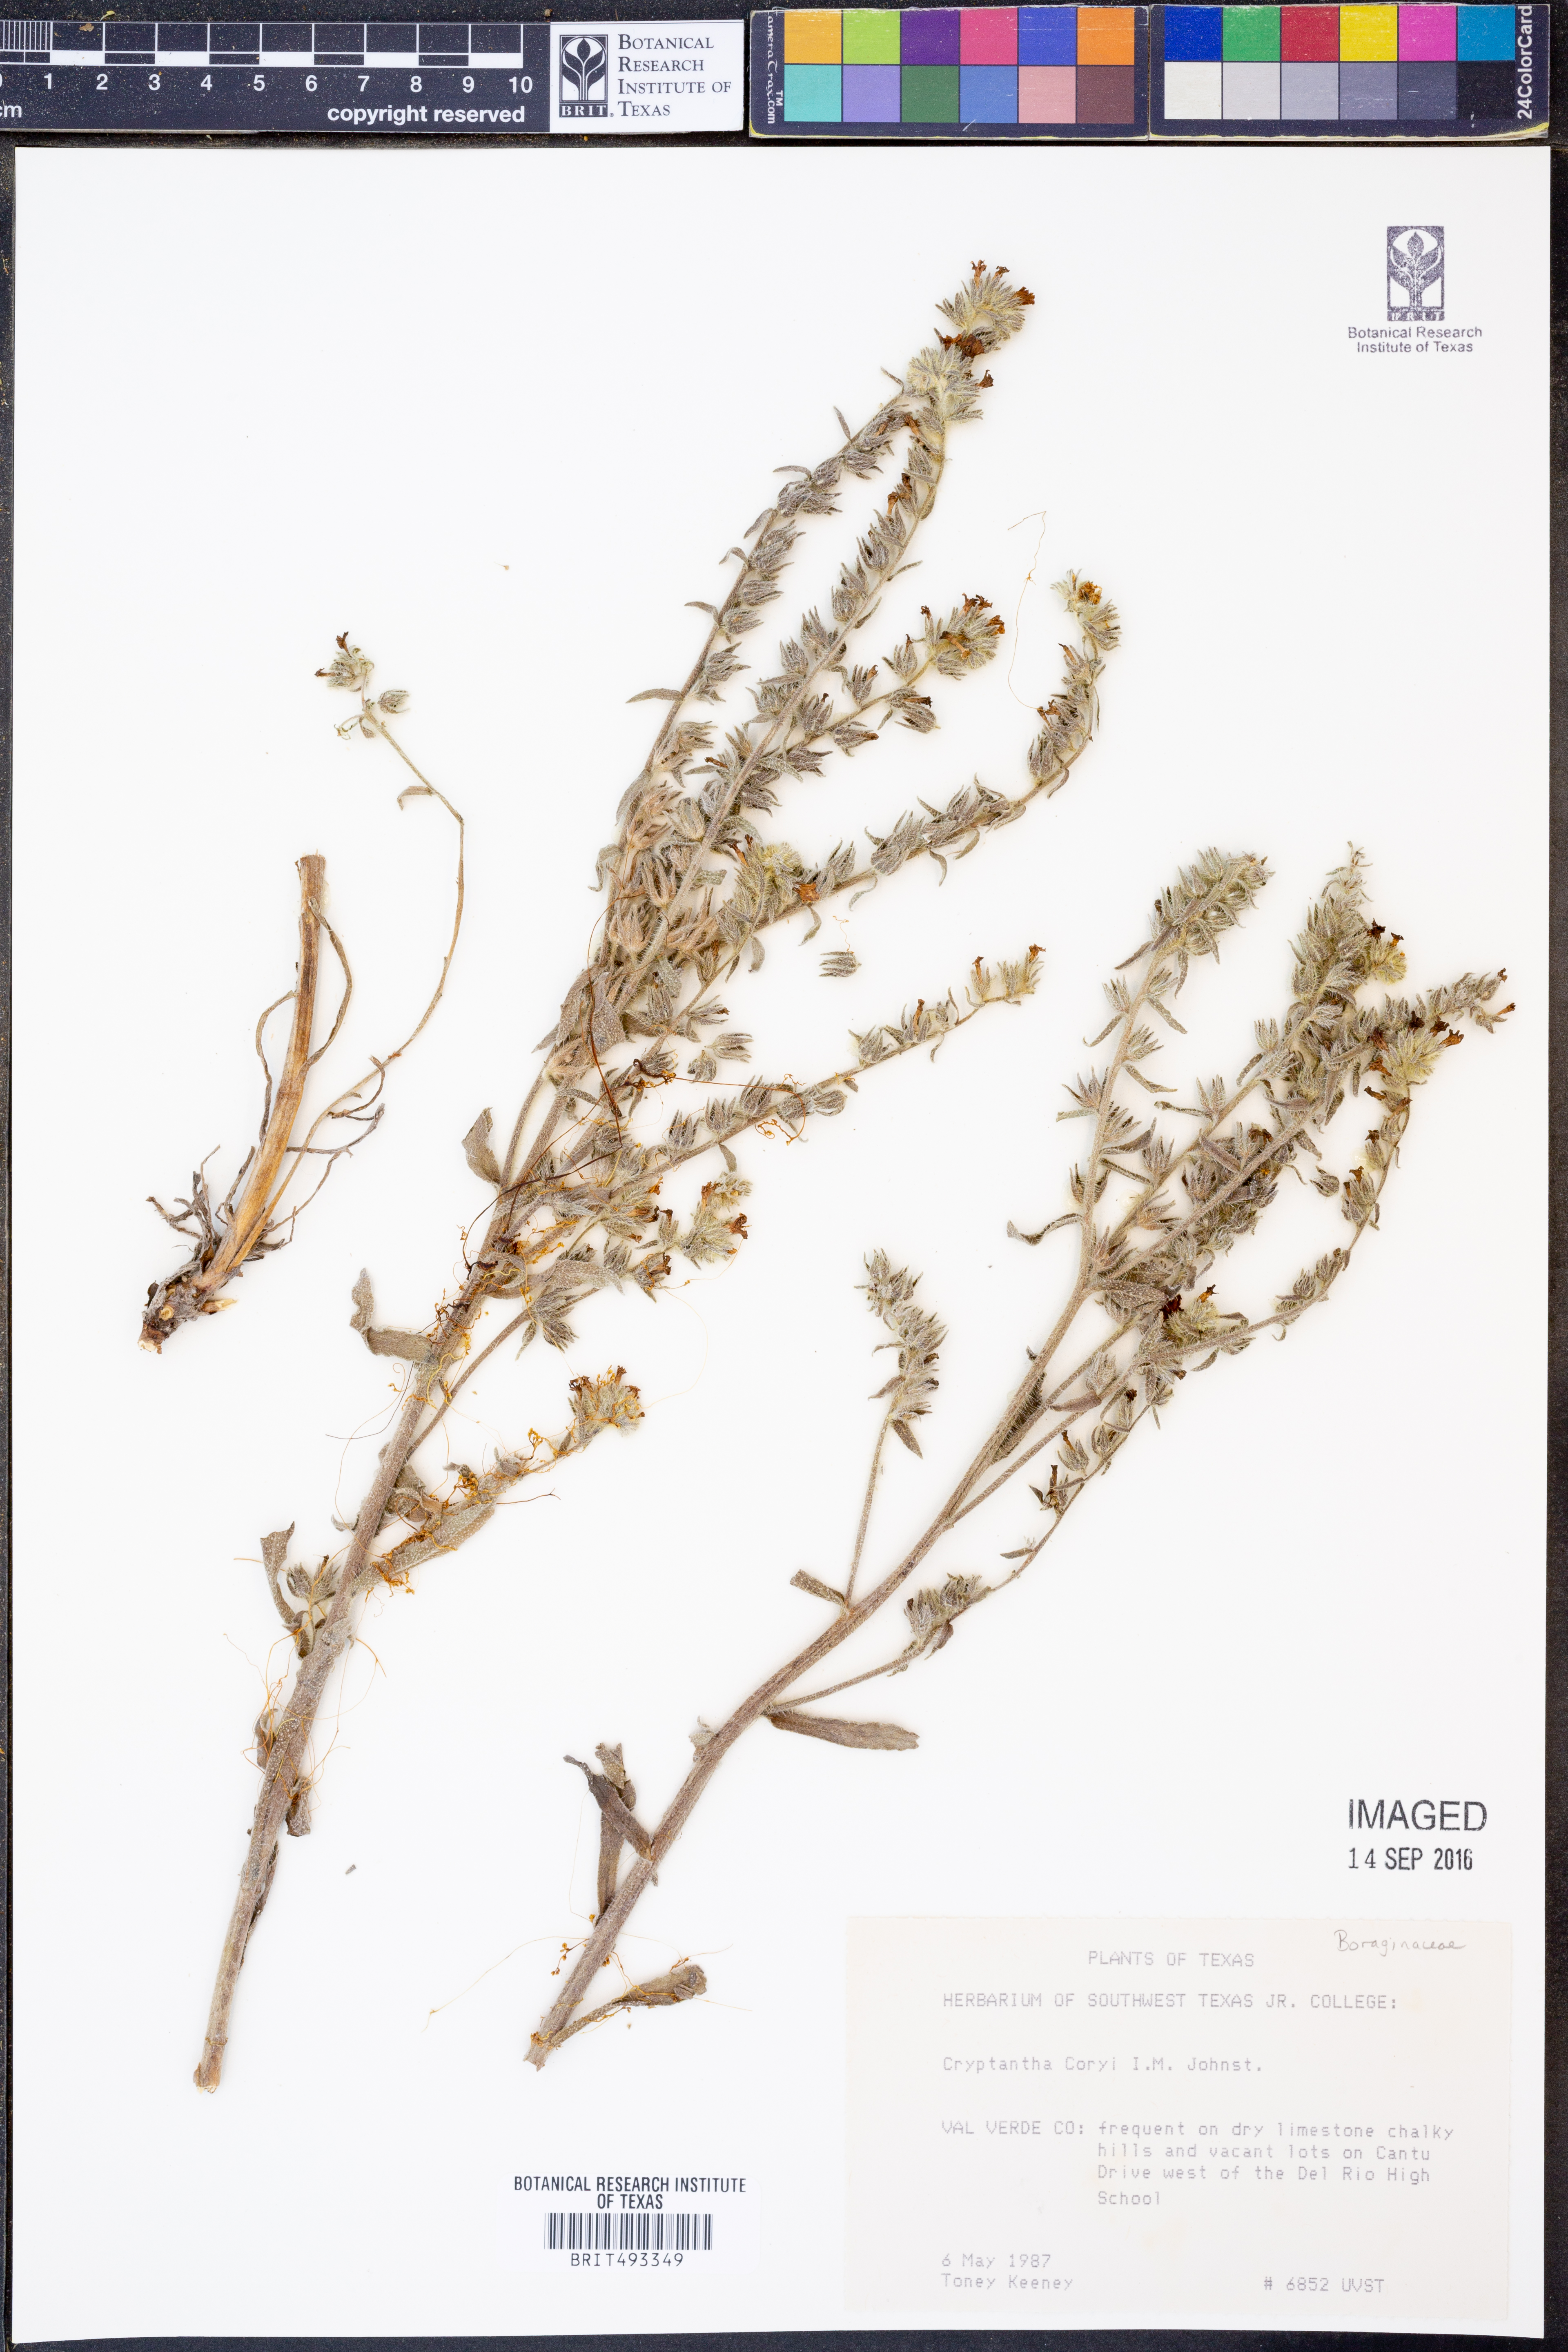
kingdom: Plantae
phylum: Tracheophyta
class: Magnoliopsida
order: Boraginales
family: Boraginaceae
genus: Oreocarya
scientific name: Oreocarya palmeri
